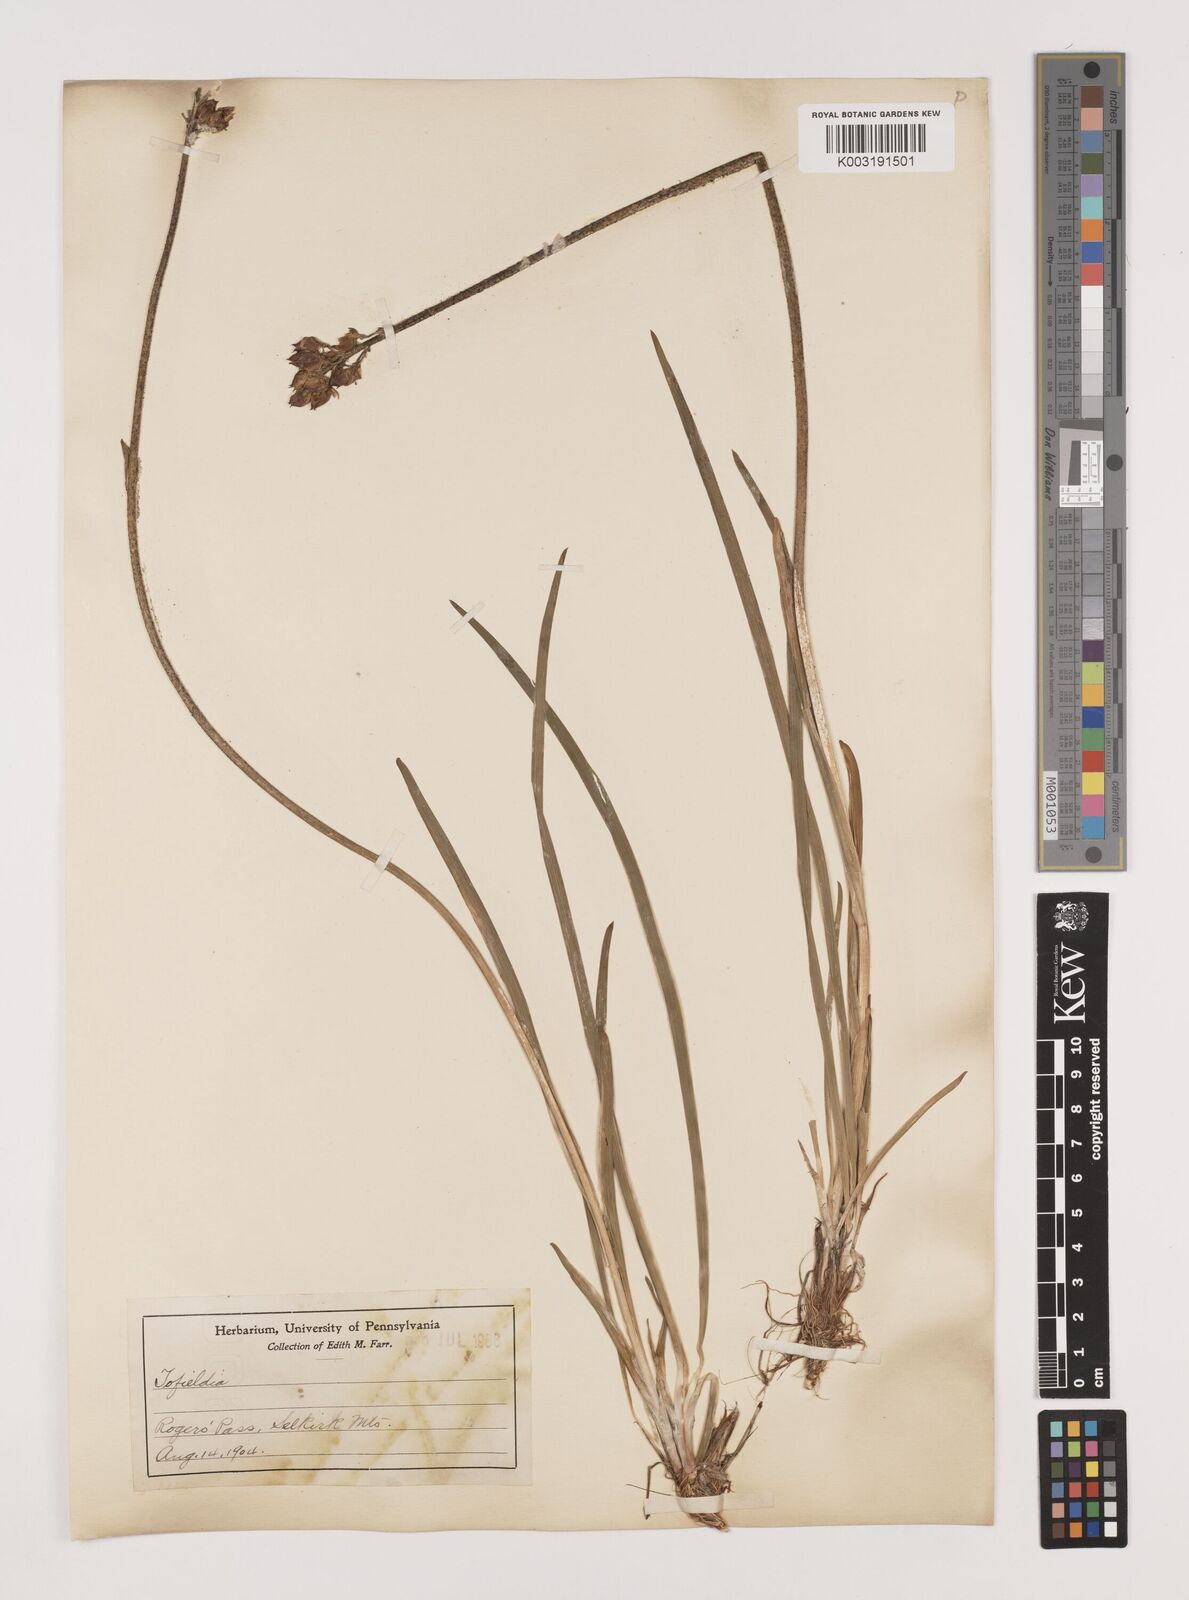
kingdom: Plantae
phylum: Tracheophyta
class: Liliopsida
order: Alismatales
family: Tofieldiaceae
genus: Tofieldia
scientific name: Tofieldia
